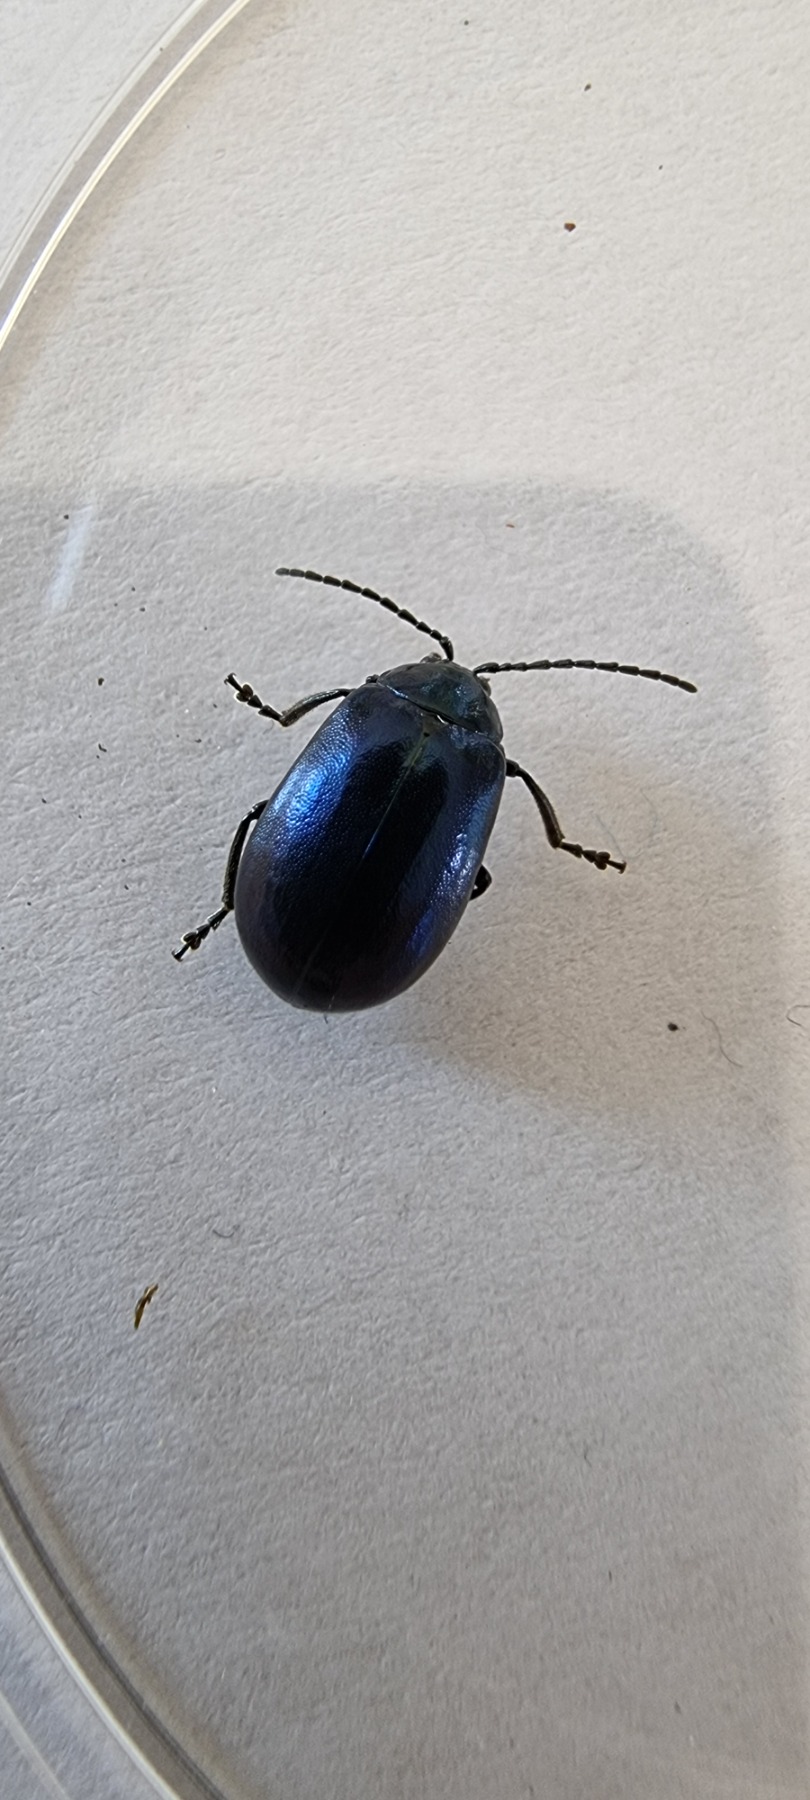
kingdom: Animalia
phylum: Arthropoda
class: Insecta
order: Coleoptera
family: Chrysomelidae
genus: Agelastica
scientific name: Agelastica alni
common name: Ellebladbille
